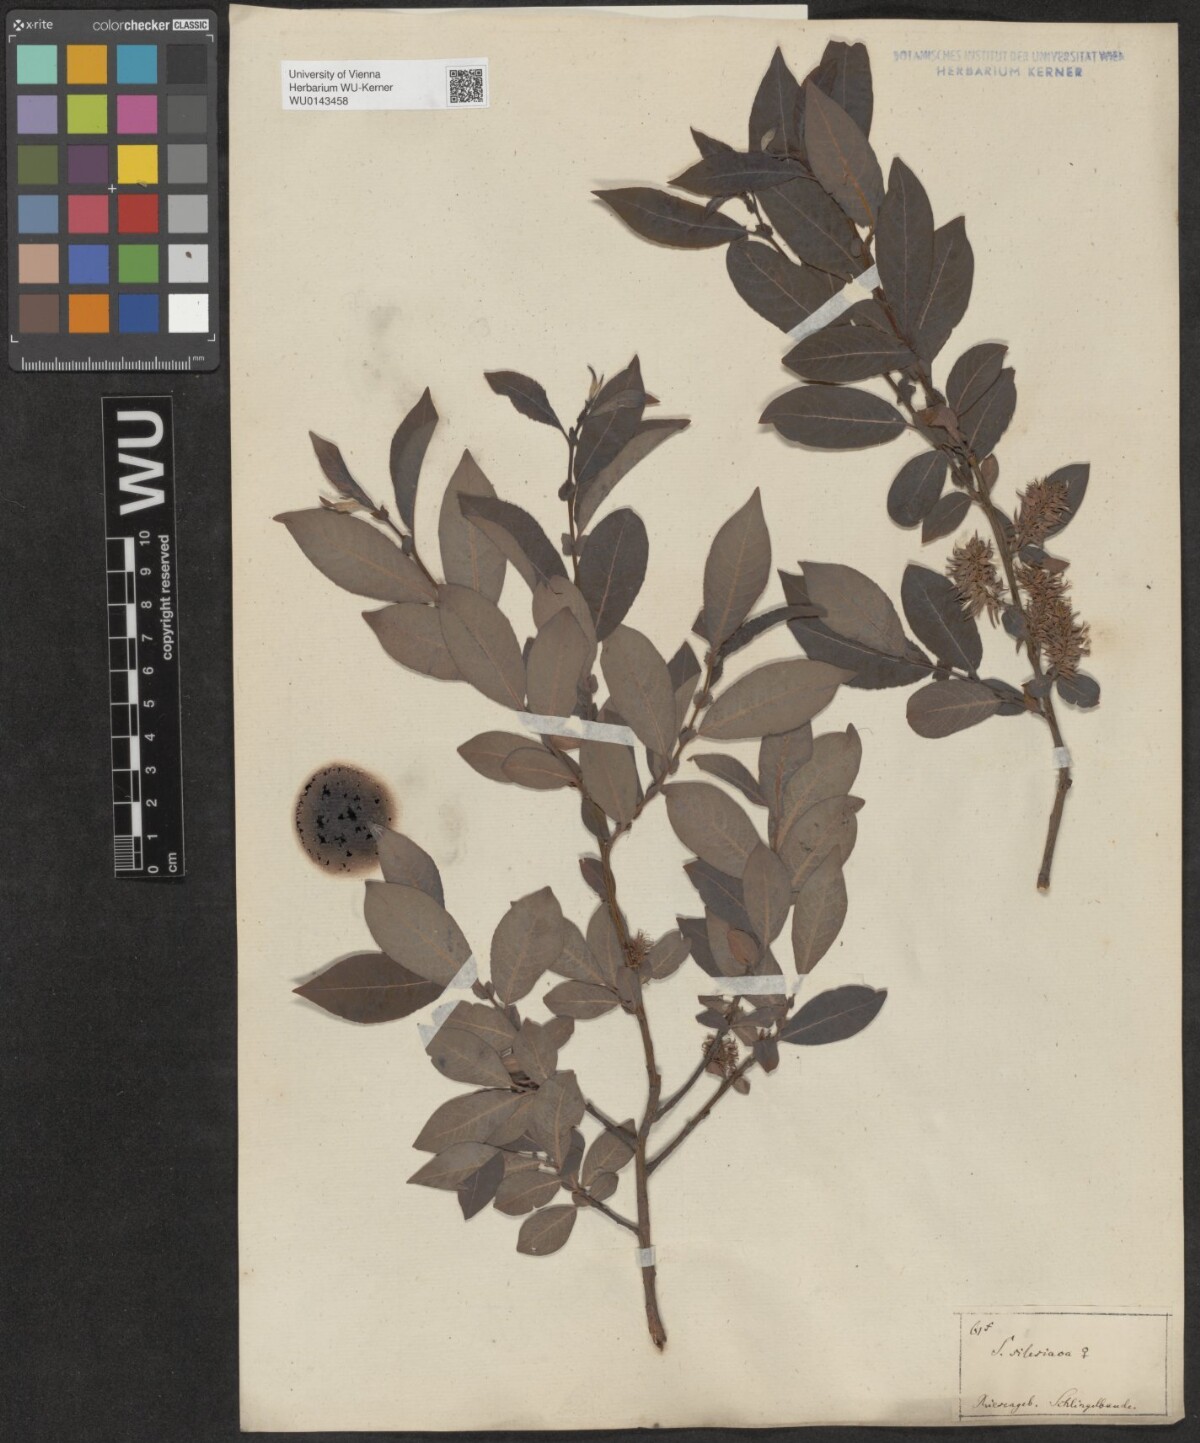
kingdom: Plantae
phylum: Tracheophyta
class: Magnoliopsida
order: Malpighiales
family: Salicaceae
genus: Salix
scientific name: Salix silesiaca
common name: Silesian willow
